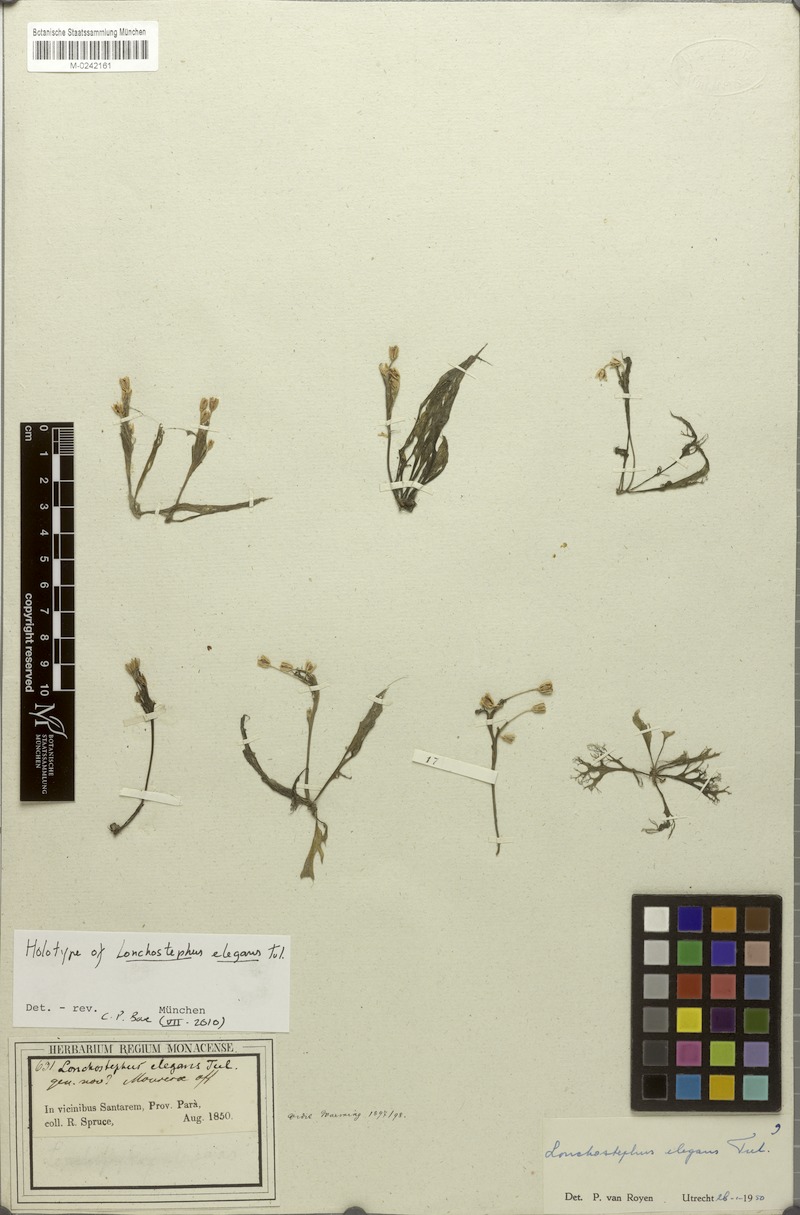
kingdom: Plantae
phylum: Tracheophyta
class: Magnoliopsida
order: Malpighiales
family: Podostemaceae
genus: Lonchostephus
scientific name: Lonchostephus elegans
